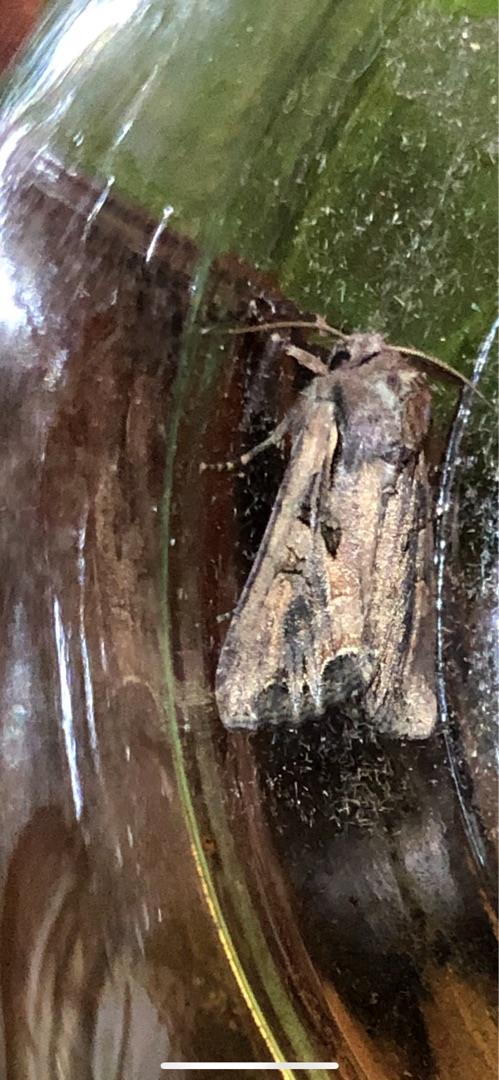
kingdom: Animalia
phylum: Arthropoda
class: Insecta
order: Lepidoptera
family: Noctuidae
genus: Lacanobia
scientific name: Lacanobia suasa
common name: Røgfarvet grønsagsugle
